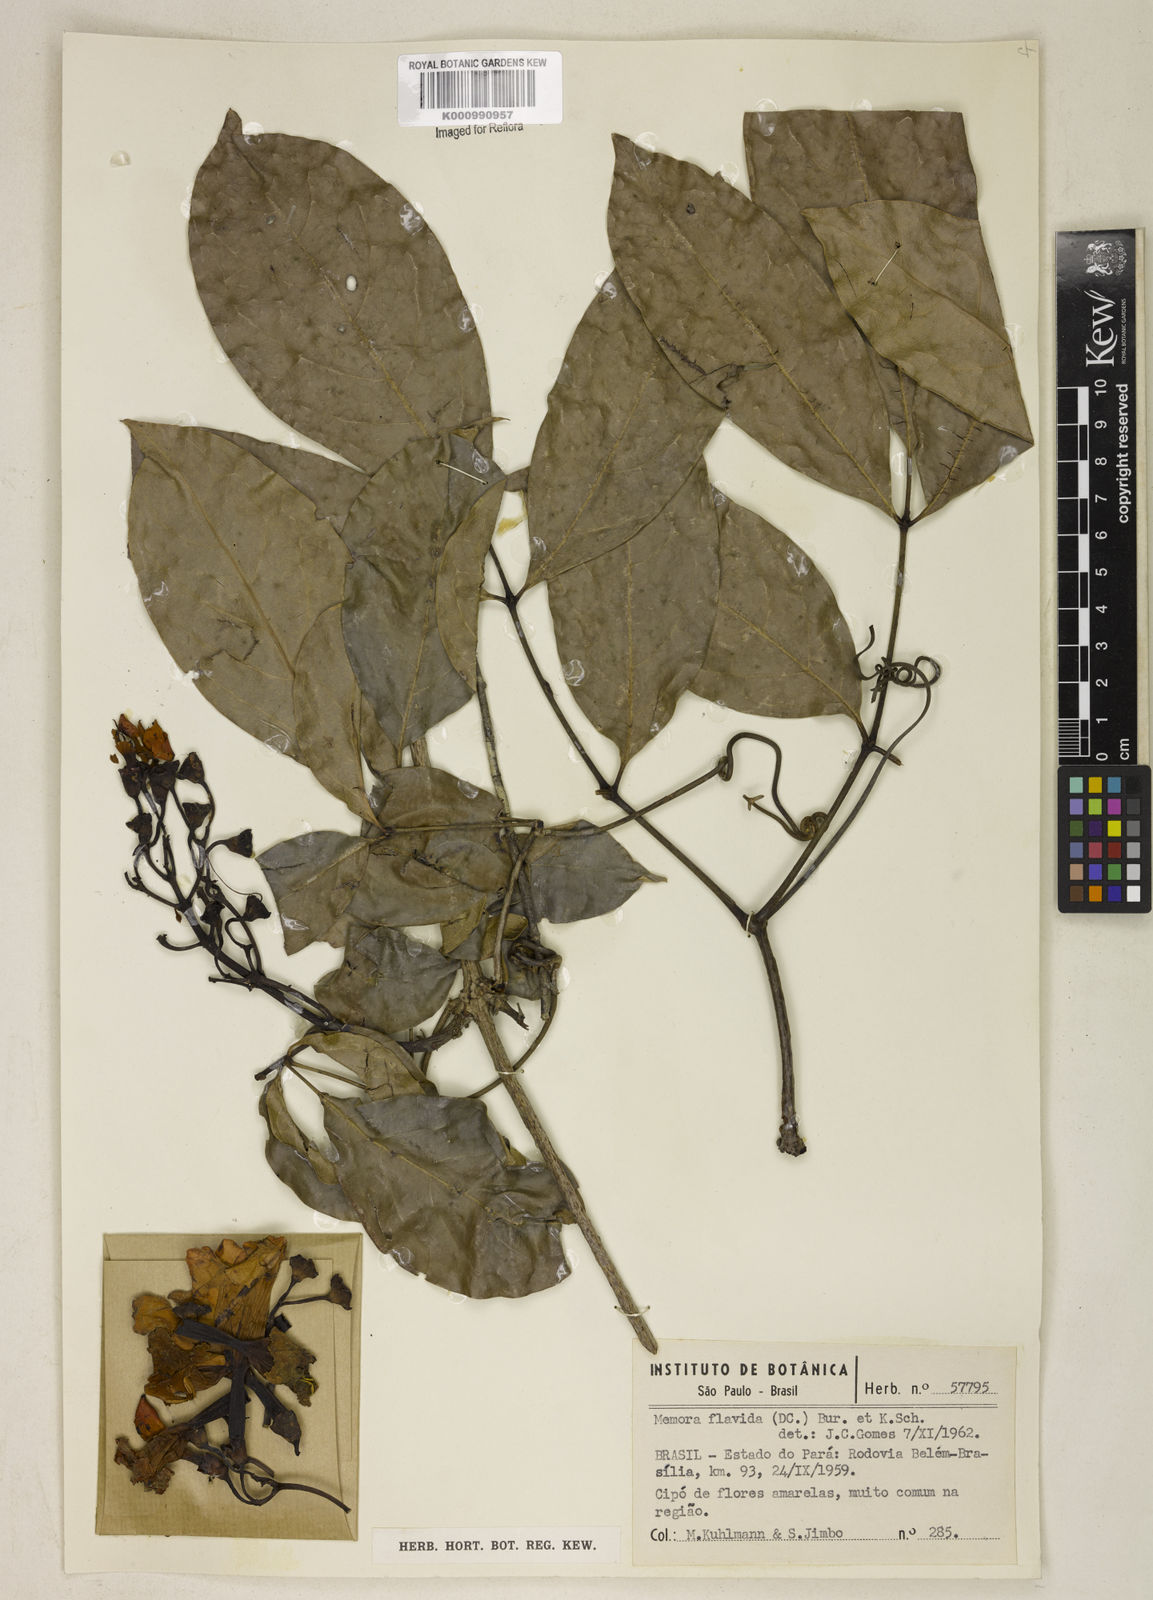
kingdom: Plantae
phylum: Tracheophyta
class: Magnoliopsida
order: Lamiales
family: Bignoniaceae
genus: Adenocalymma
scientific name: Adenocalymma neoflavidum
